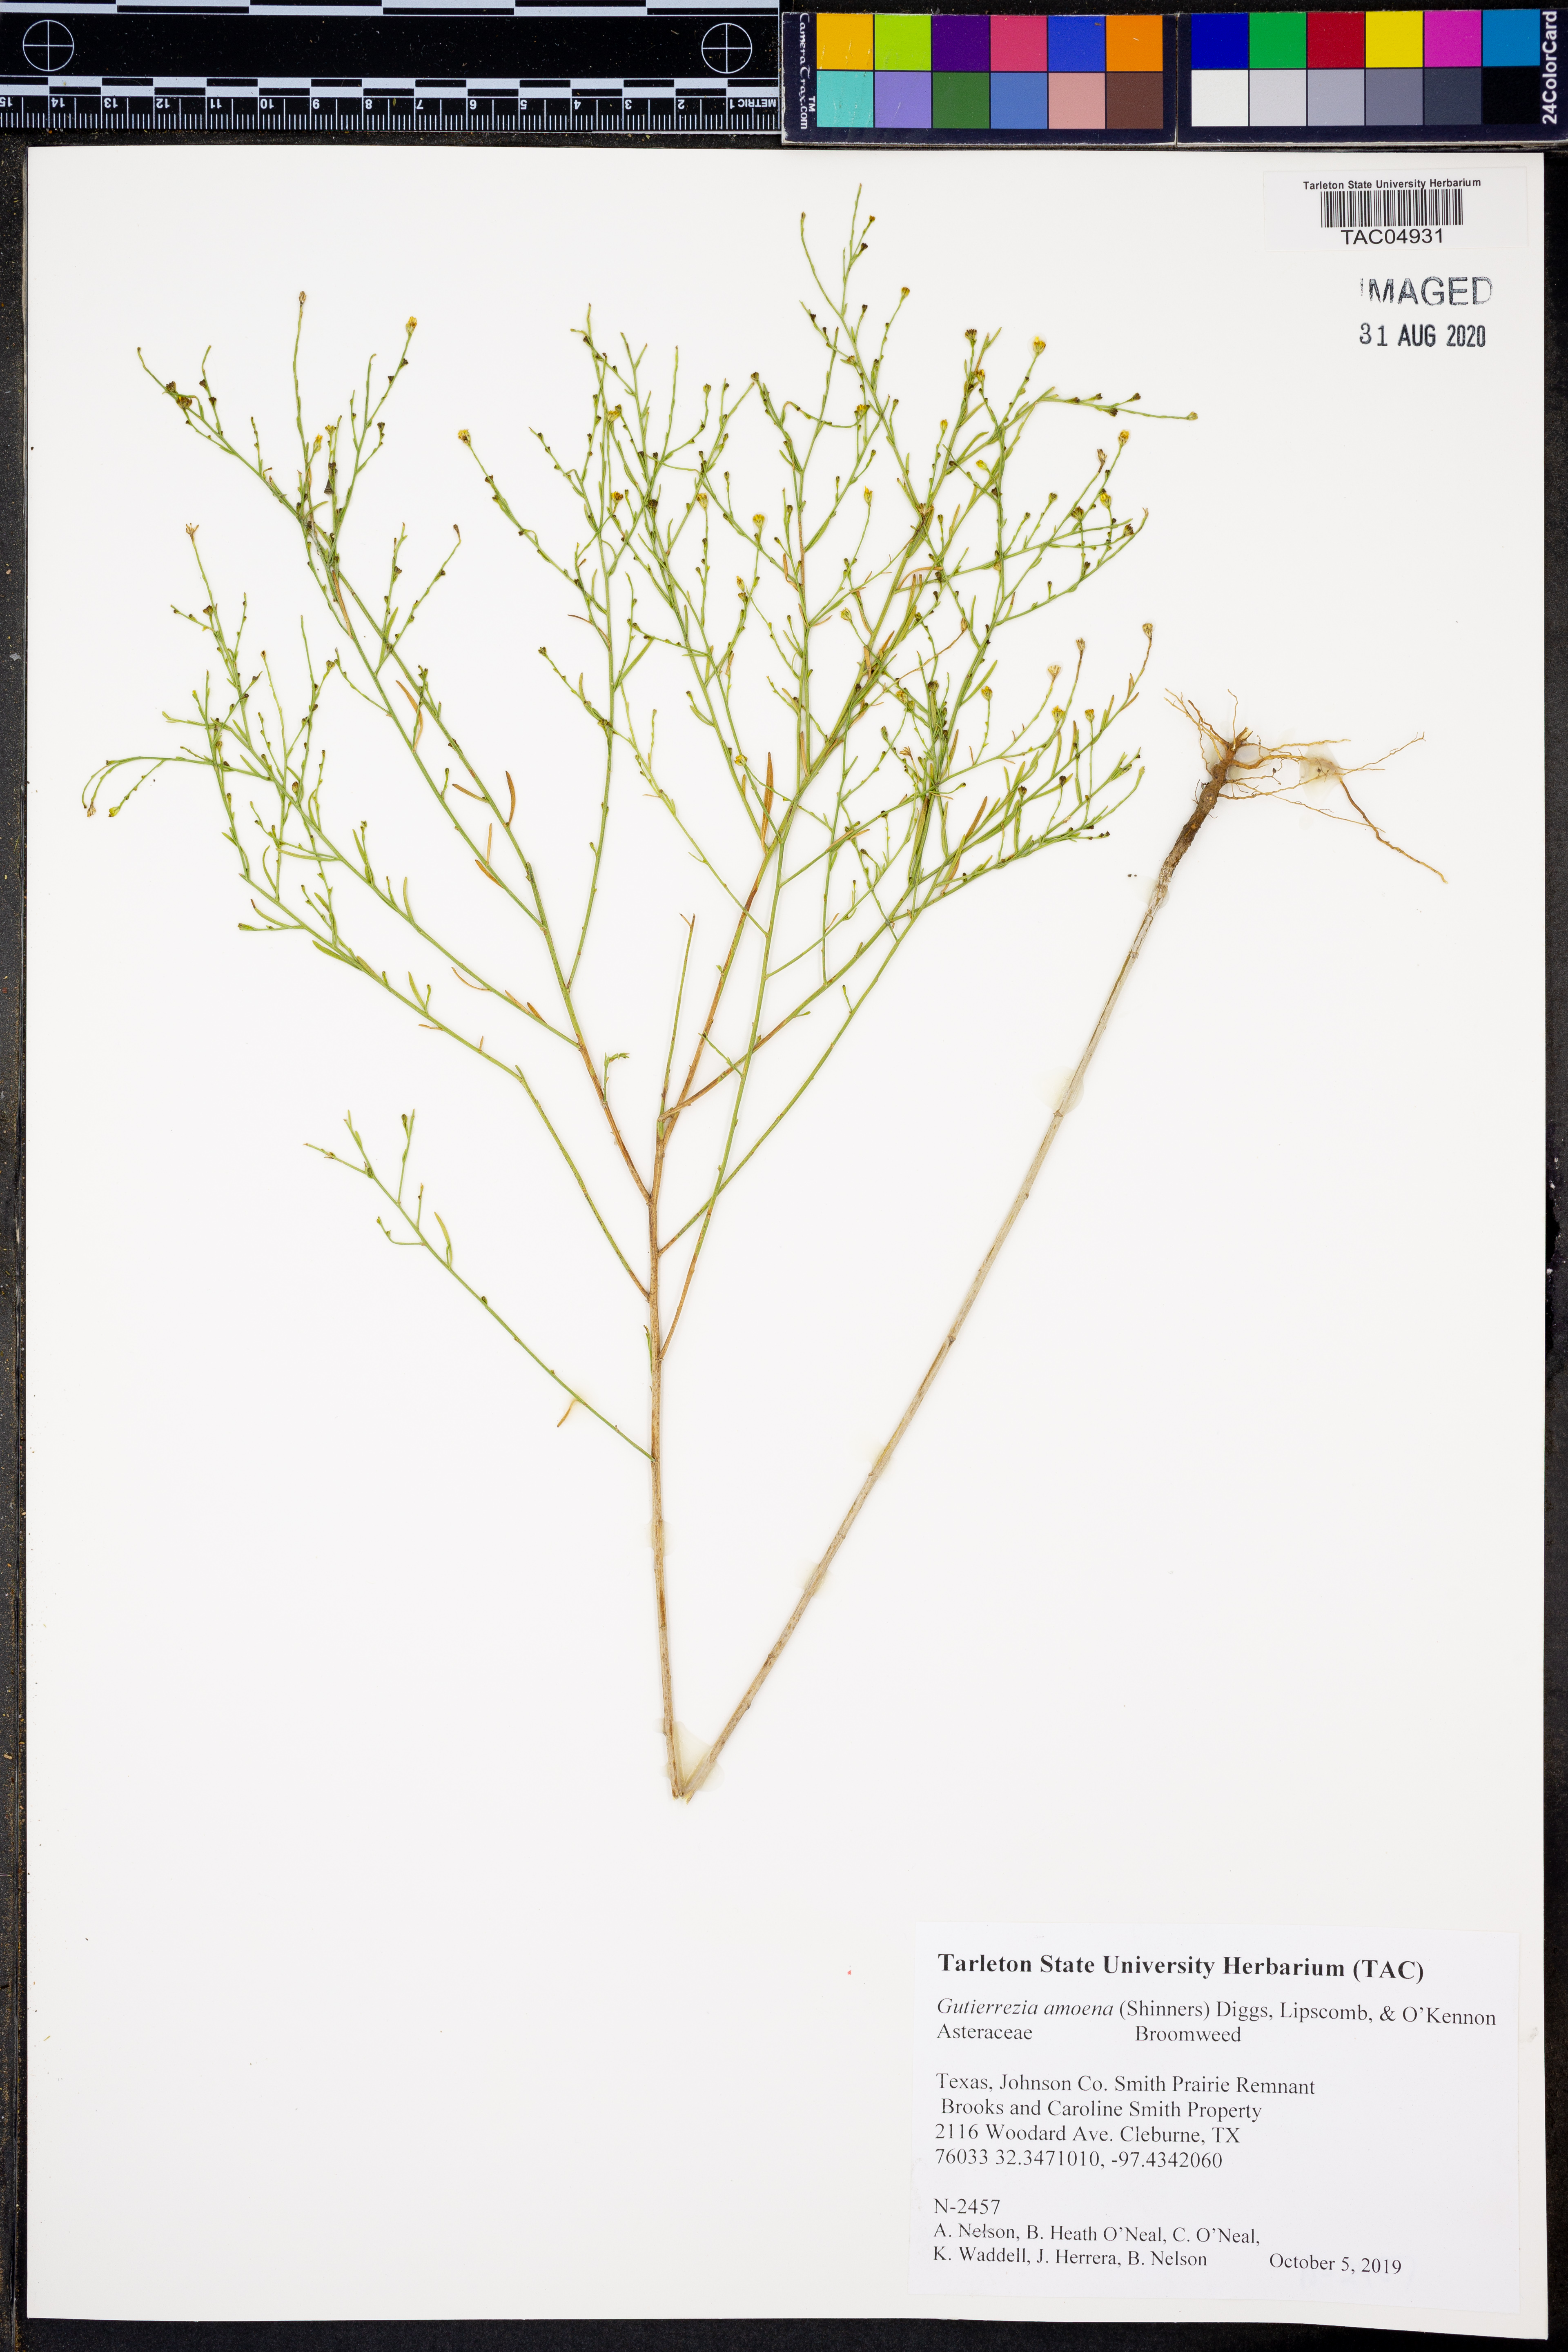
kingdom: Plantae
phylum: Tracheophyta
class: Magnoliopsida
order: Asterales
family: Asteraceae
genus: Amphiachyris
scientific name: Amphiachyris amoenum
